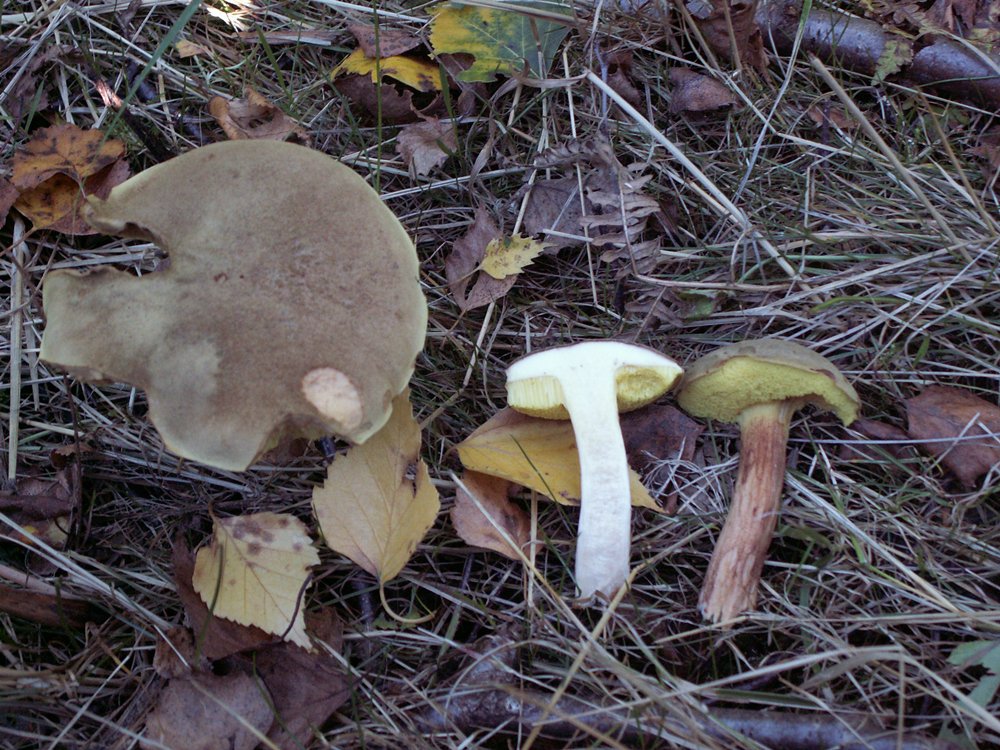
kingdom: Fungi
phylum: Basidiomycota
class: Agaricomycetes
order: Boletales
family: Boletaceae
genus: Xerocomus
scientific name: Xerocomus ferrugineus
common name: vaskeskinds-rørhat
